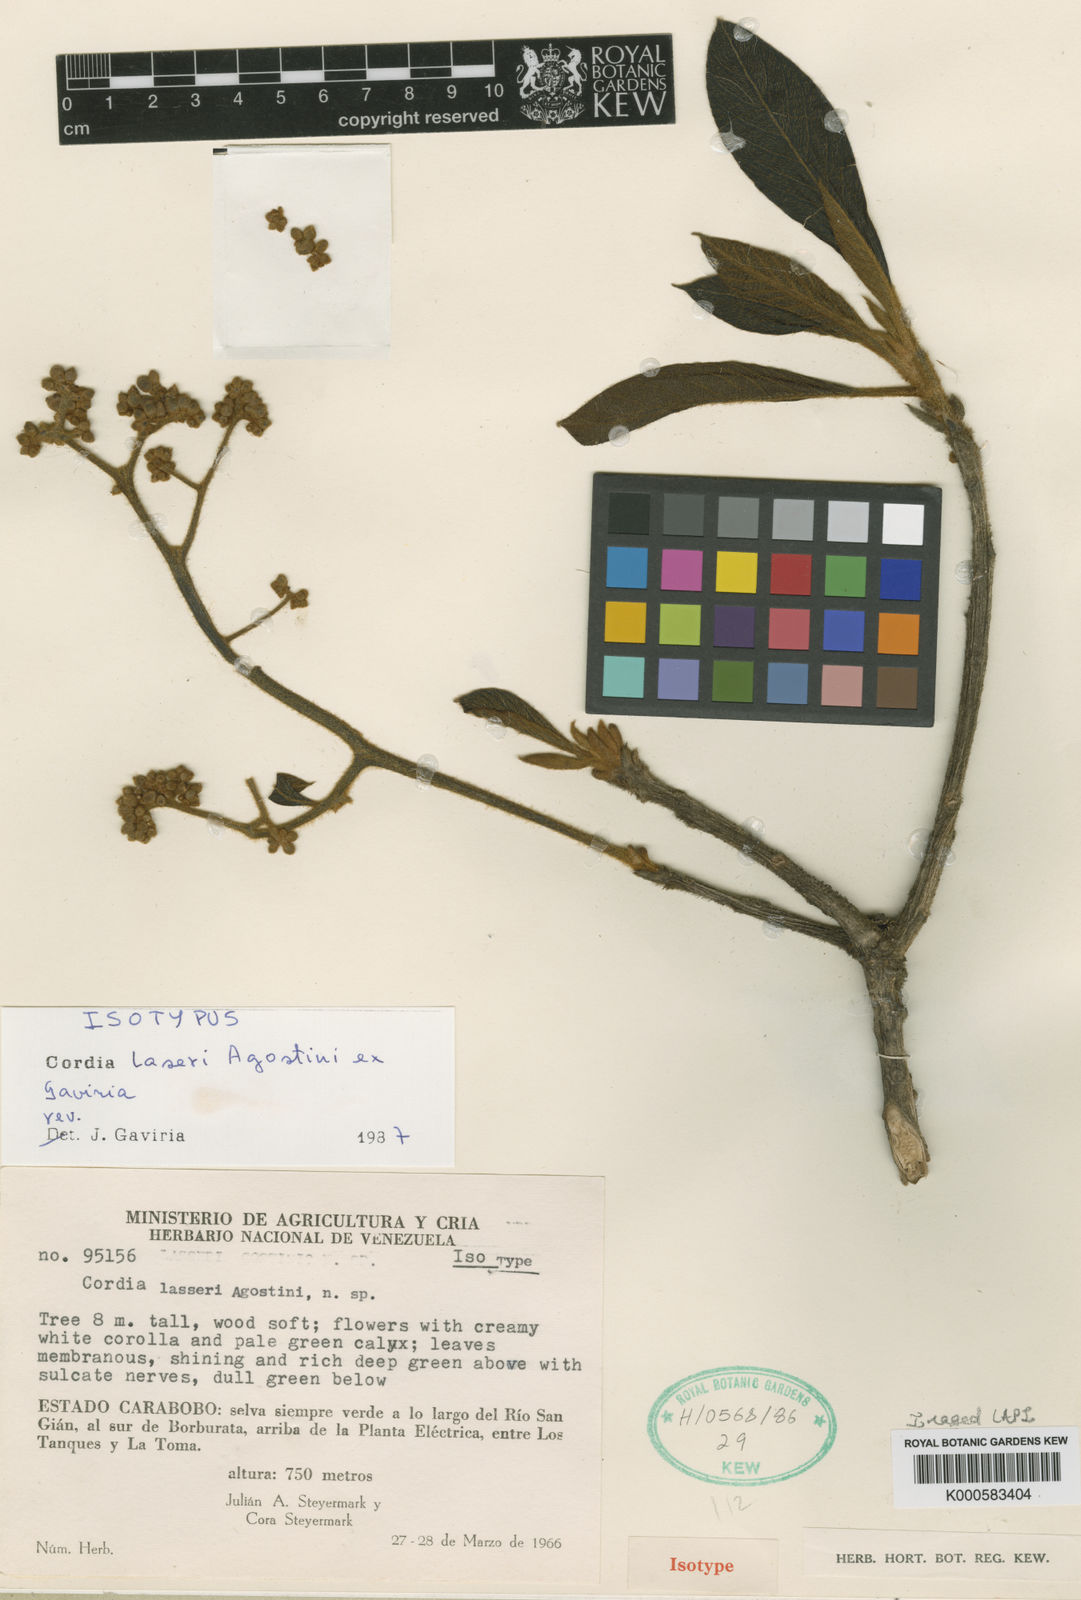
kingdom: Plantae
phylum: Tracheophyta
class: Magnoliopsida
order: Boraginales
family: Cordiaceae
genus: Cordia
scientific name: Cordia lasseri
